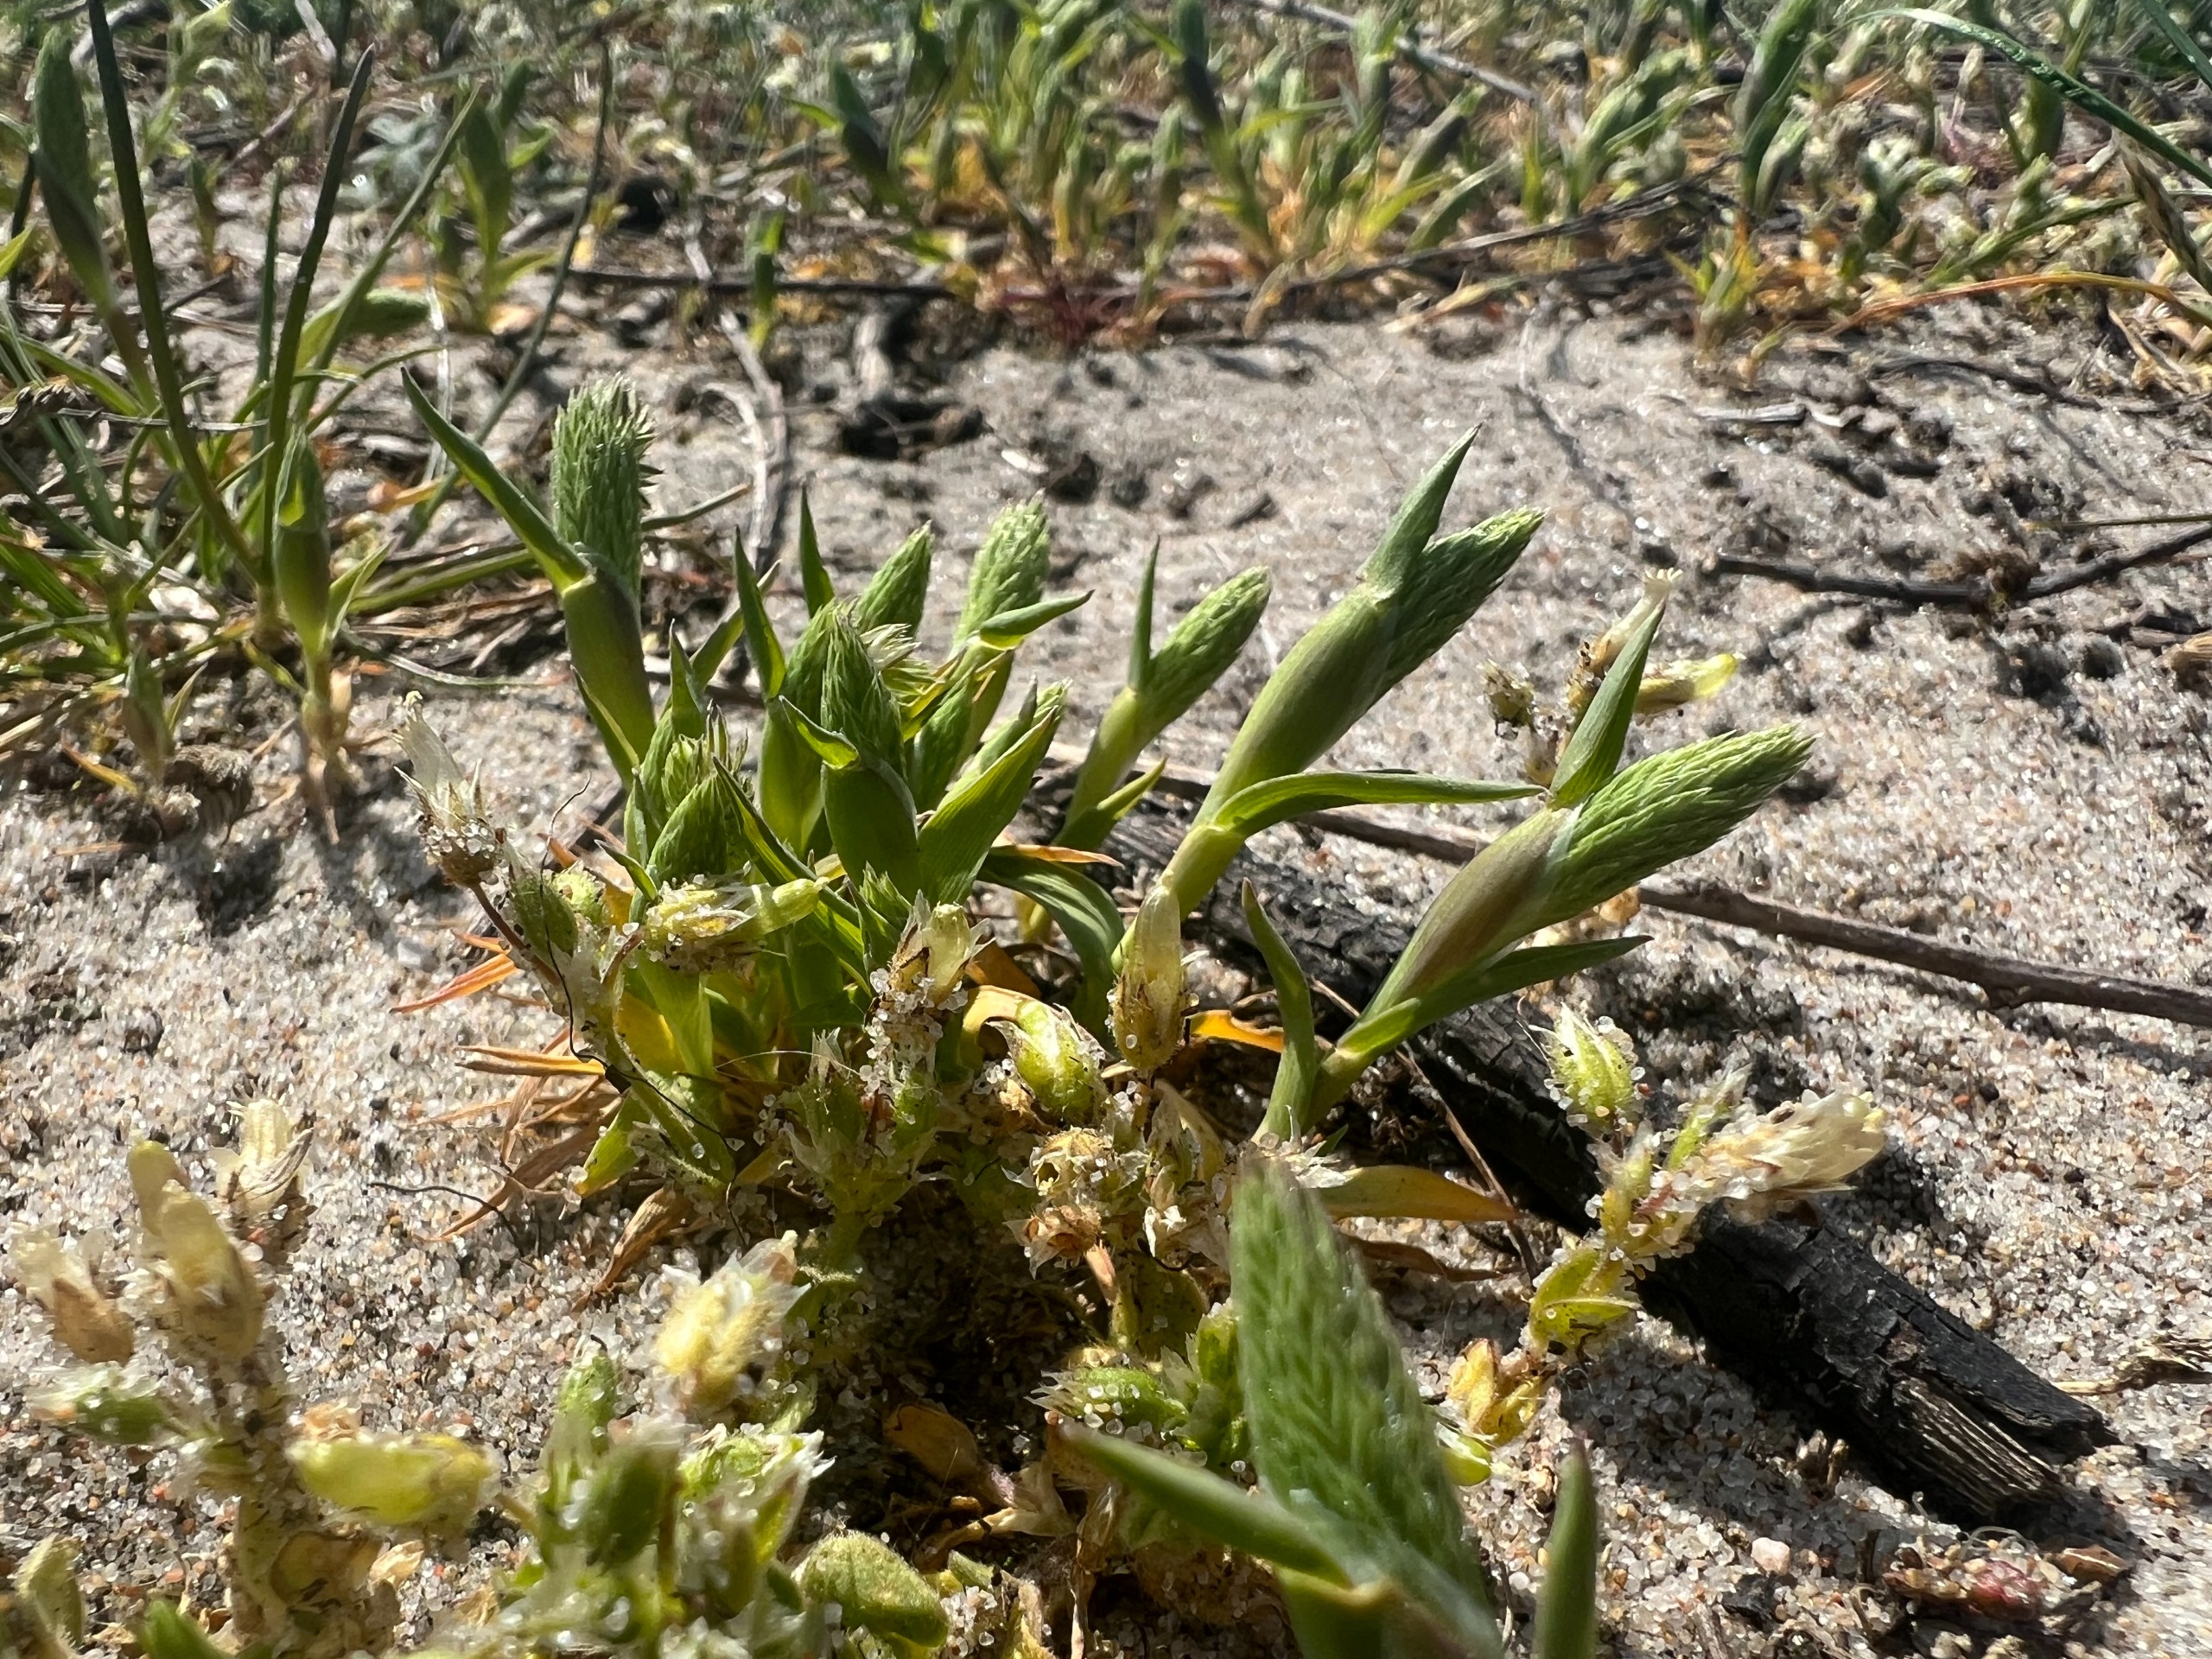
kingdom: Plantae
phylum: Tracheophyta
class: Liliopsida
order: Poales
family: Poaceae
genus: Phleum
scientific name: Phleum arenarium
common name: Sand-rottehale
